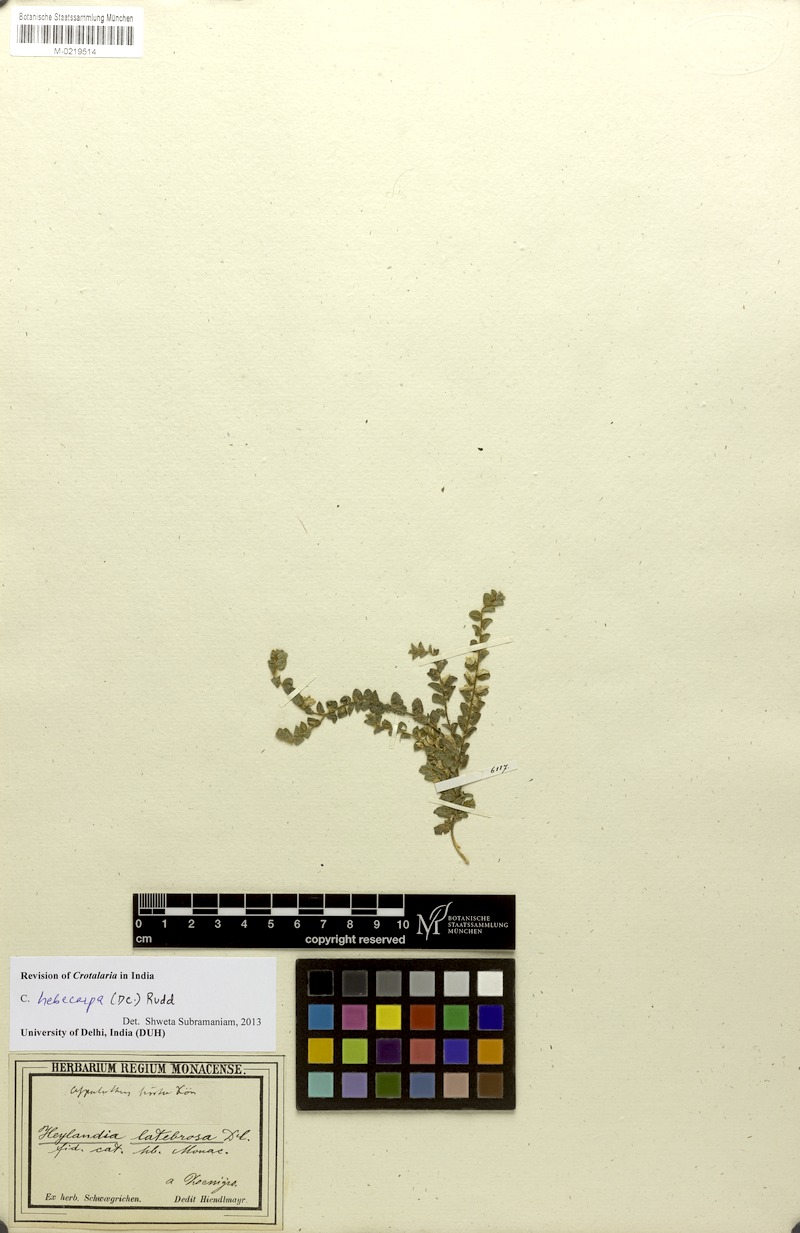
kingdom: Plantae
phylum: Tracheophyta
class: Magnoliopsida
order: Fabales
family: Fabaceae
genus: Crotalaria
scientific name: Crotalaria hebecarpa
